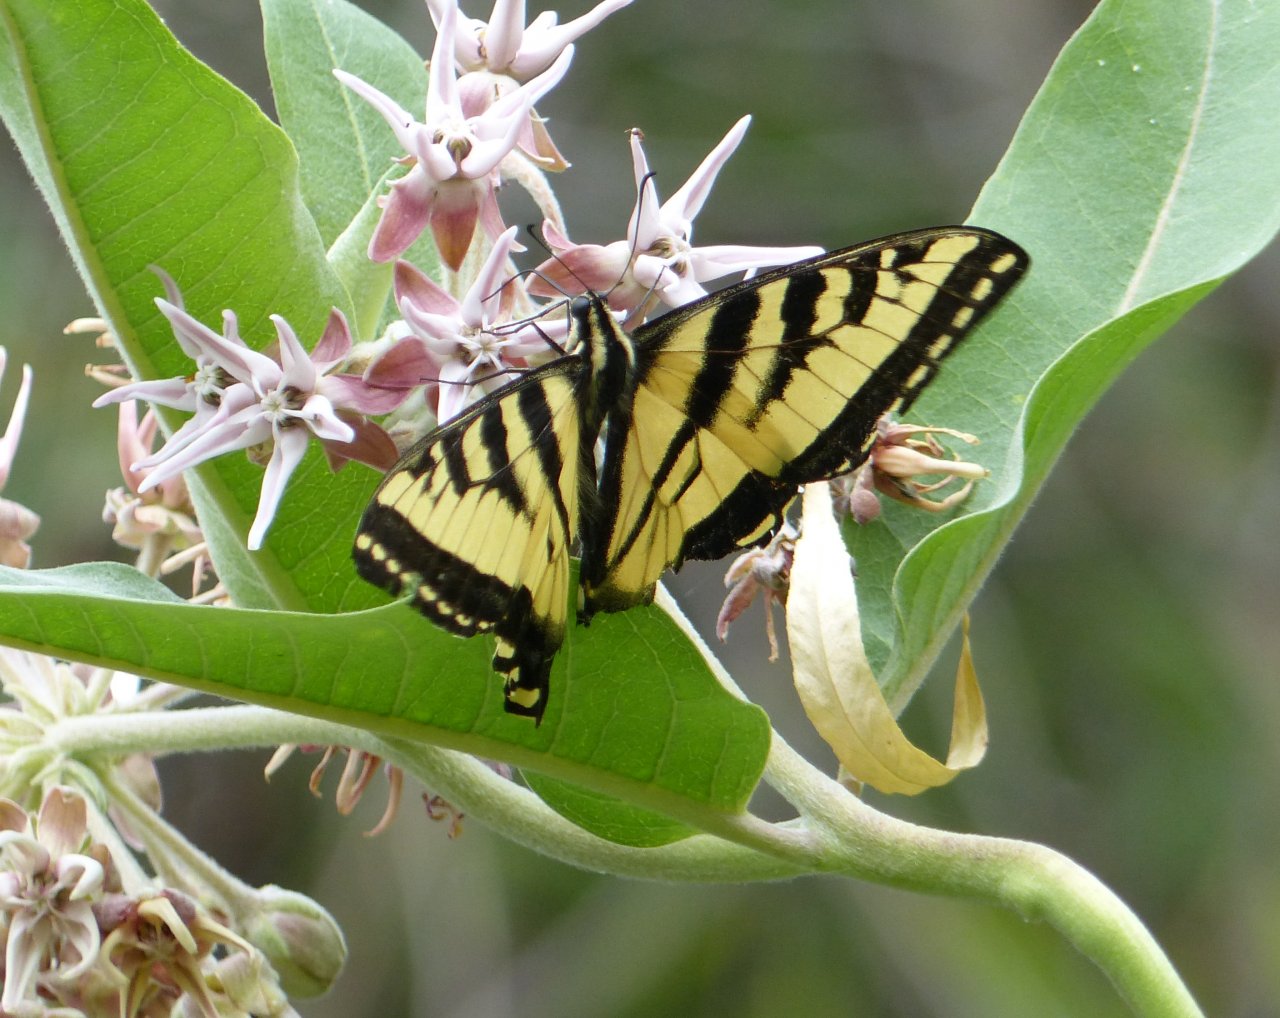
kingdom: Animalia
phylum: Arthropoda
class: Insecta
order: Lepidoptera
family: Papilionidae
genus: Pterourus
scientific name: Pterourus rutulus
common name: Western Tiger Swallowtail
